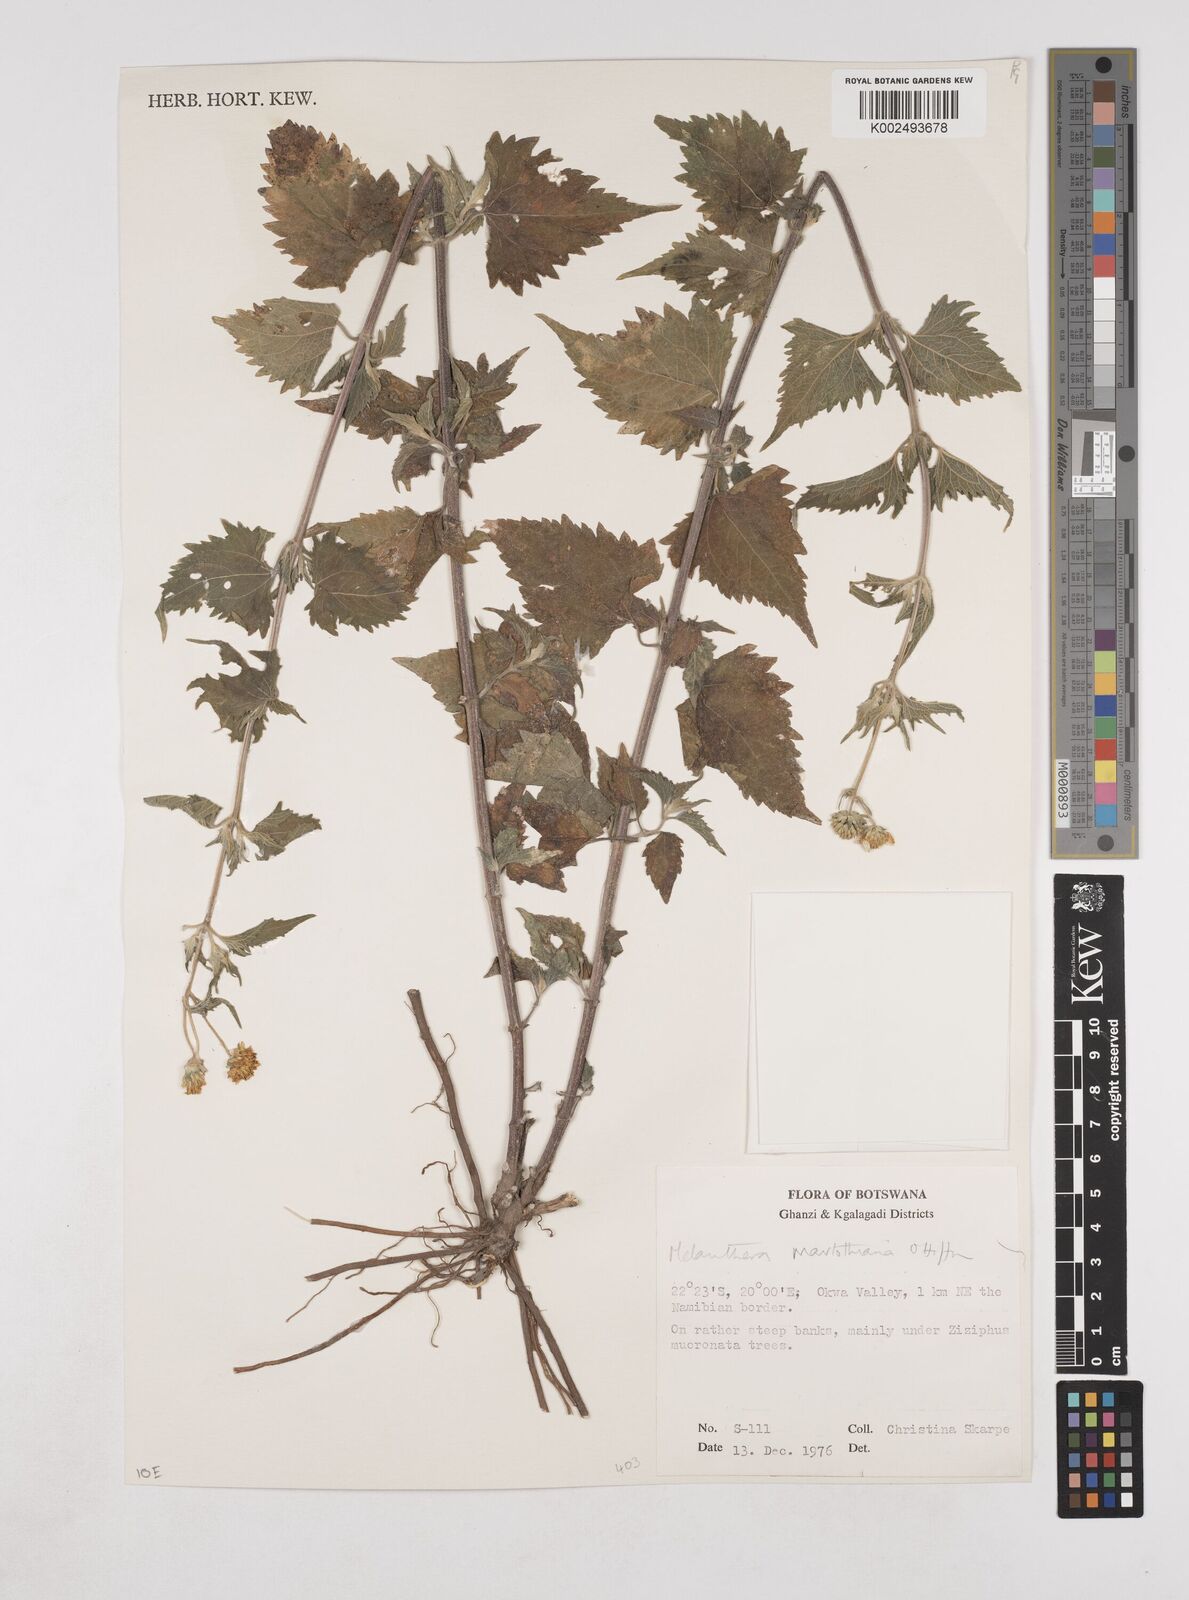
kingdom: Plantae
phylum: Tracheophyta
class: Magnoliopsida
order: Asterales
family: Asteraceae
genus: Lipotriche
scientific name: Lipotriche marlothiana
